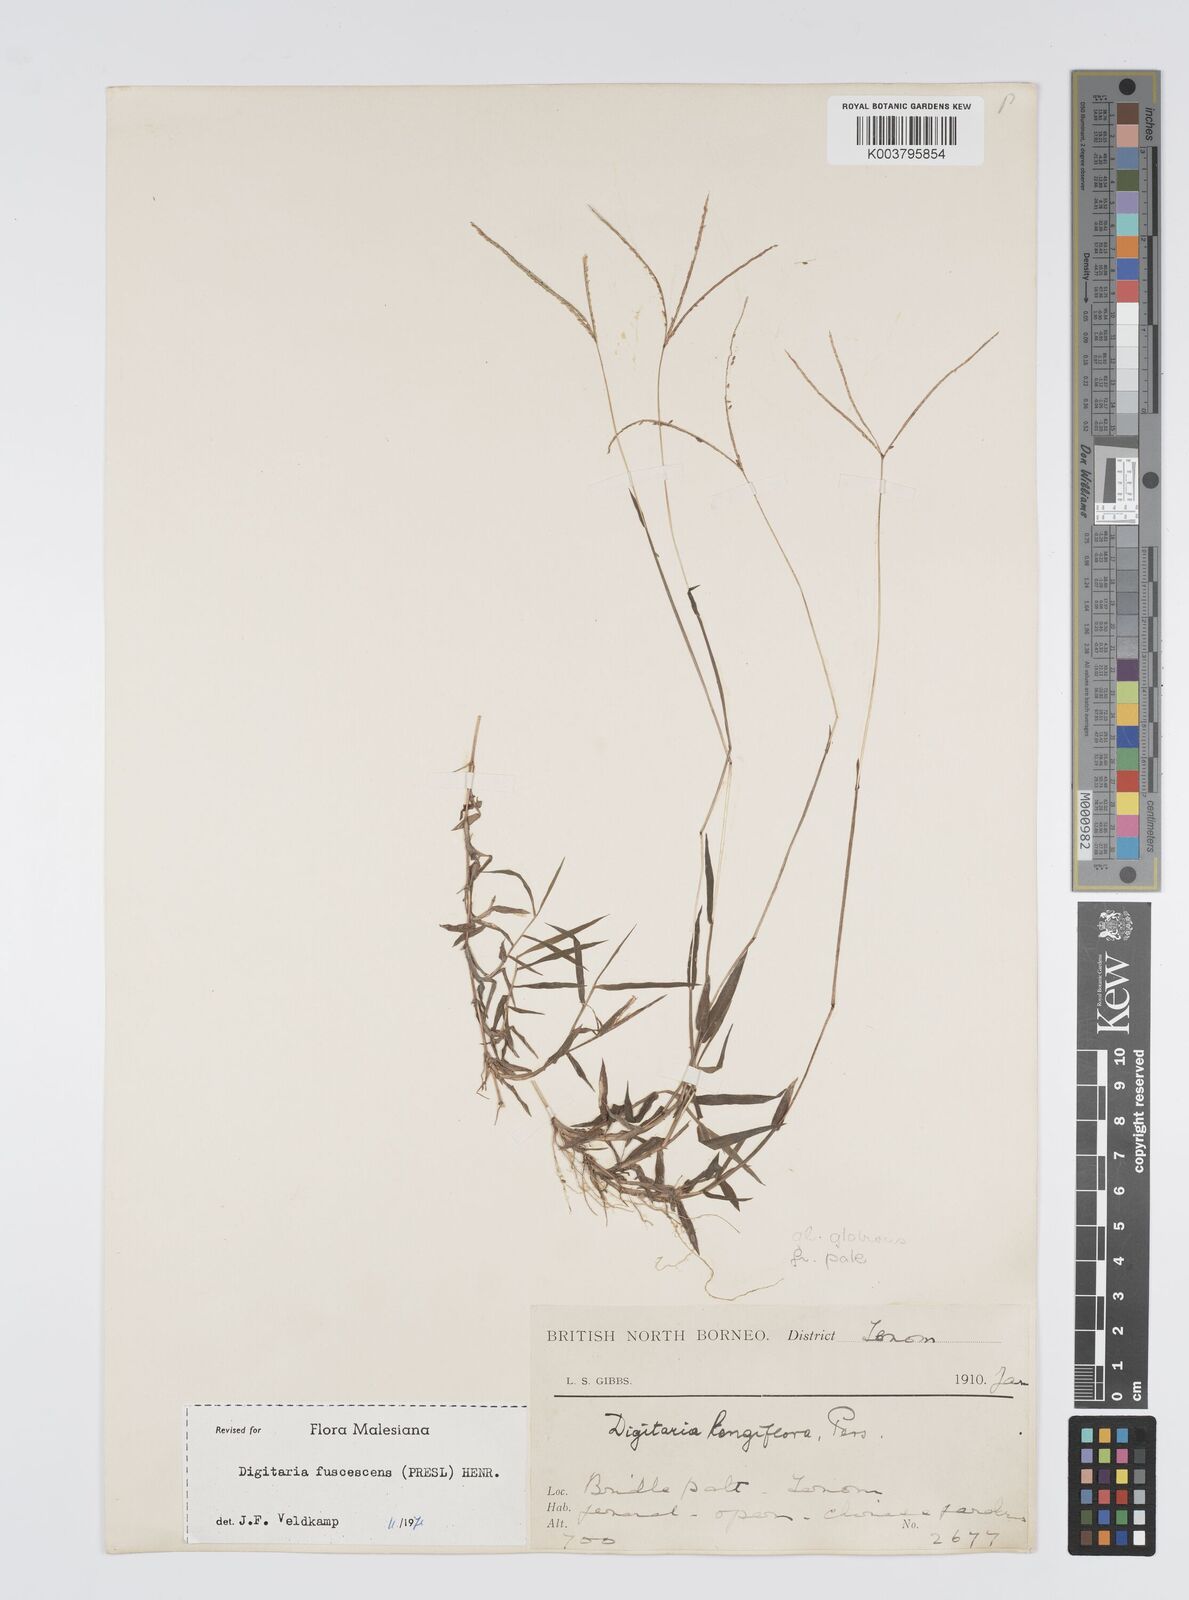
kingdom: Plantae
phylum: Tracheophyta
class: Liliopsida
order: Poales
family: Poaceae
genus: Digitaria
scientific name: Digitaria fuscescens
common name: Yellow crabgrass
